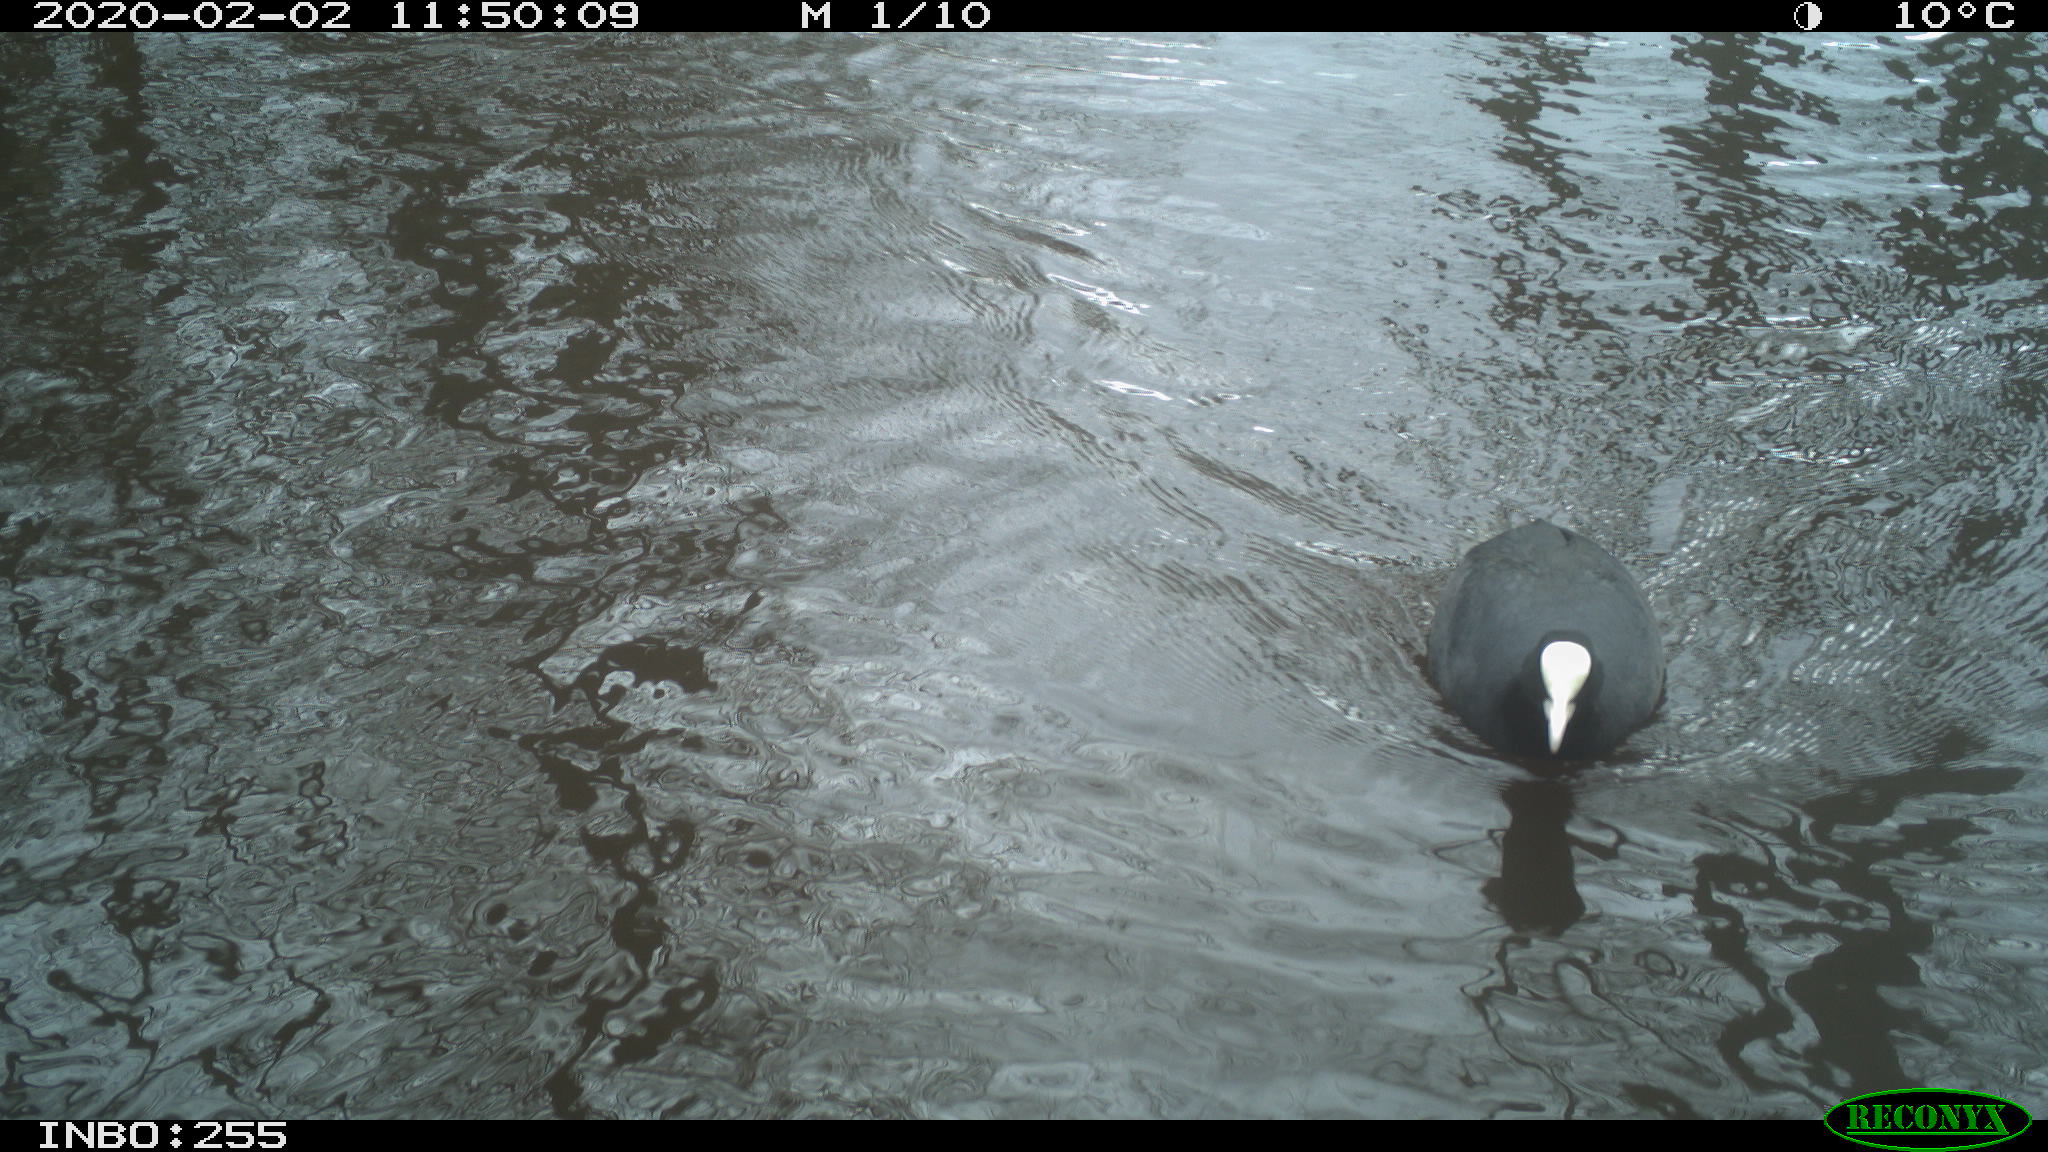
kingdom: Animalia
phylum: Chordata
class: Aves
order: Gruiformes
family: Rallidae
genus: Fulica
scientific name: Fulica atra
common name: Eurasian coot
